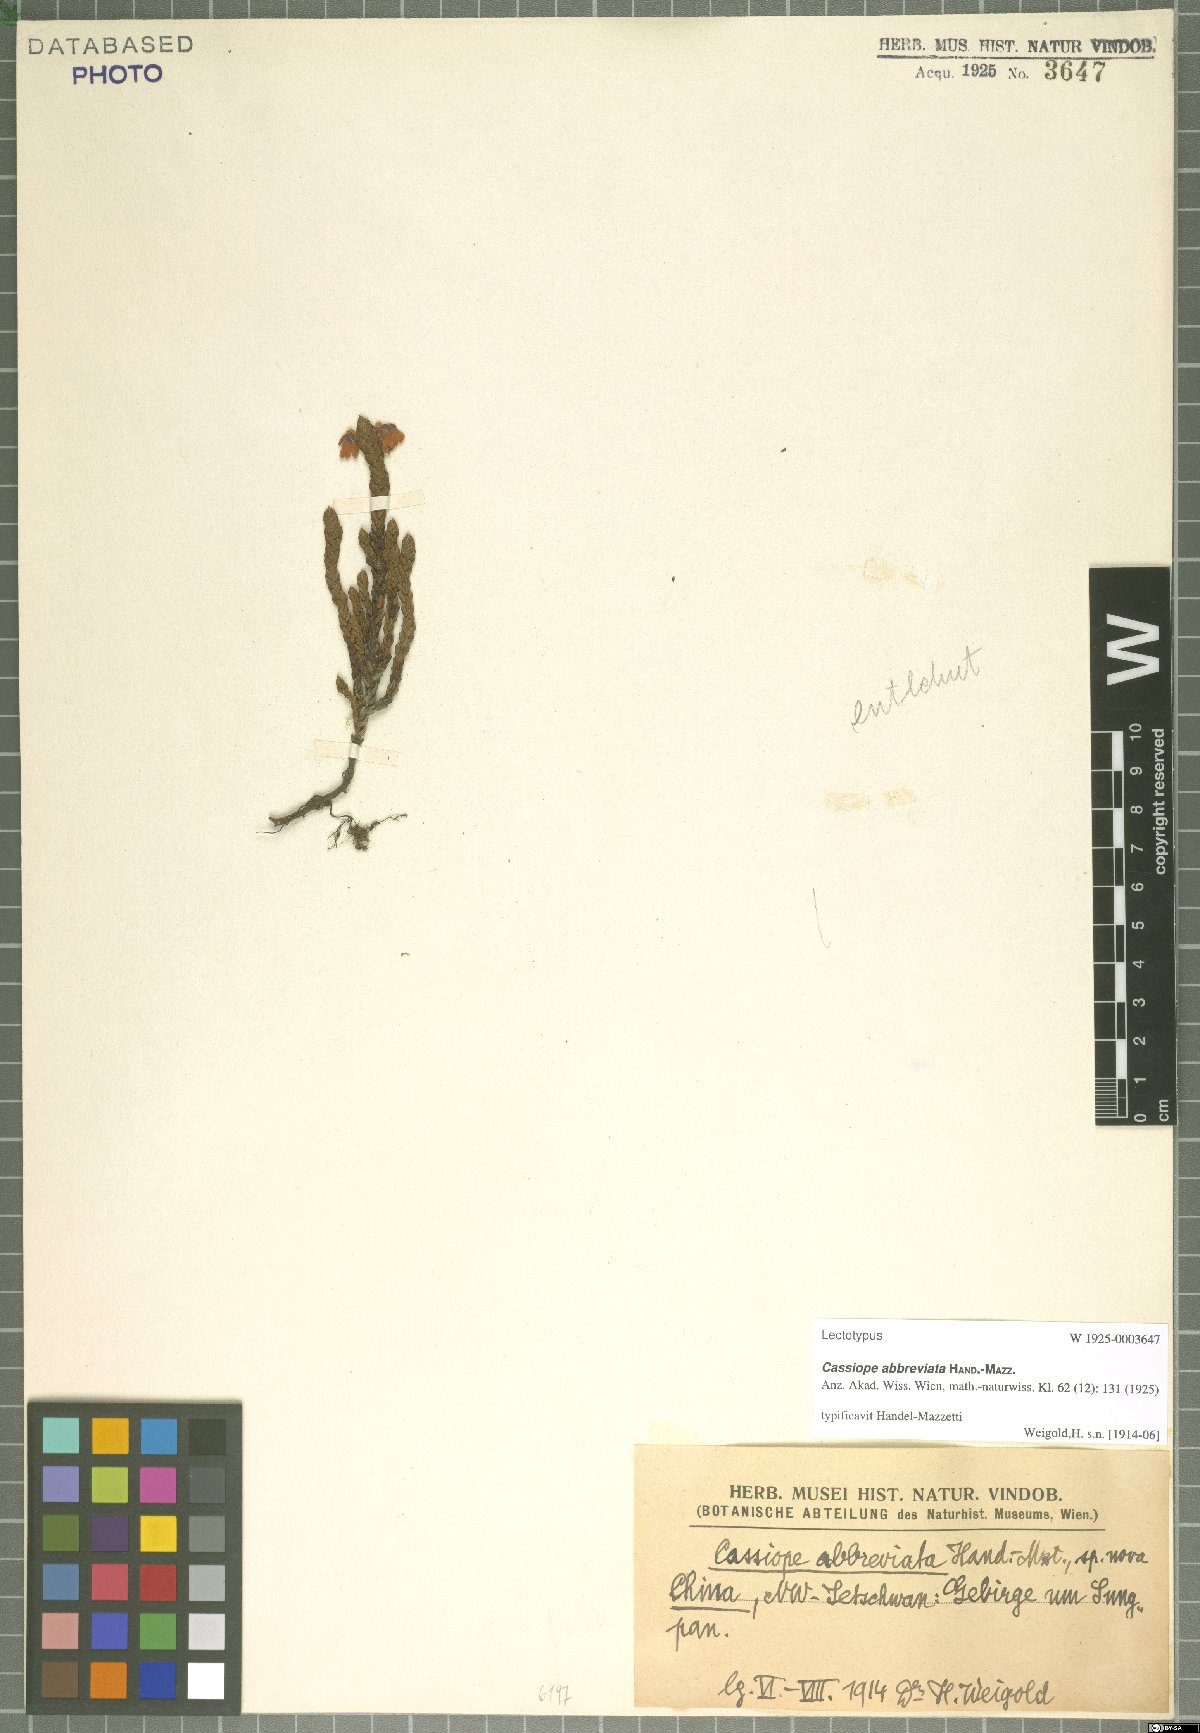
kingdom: Plantae
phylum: Tracheophyta
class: Magnoliopsida
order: Ericales
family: Ericaceae
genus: Cassiope
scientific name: Cassiope abbreviata
